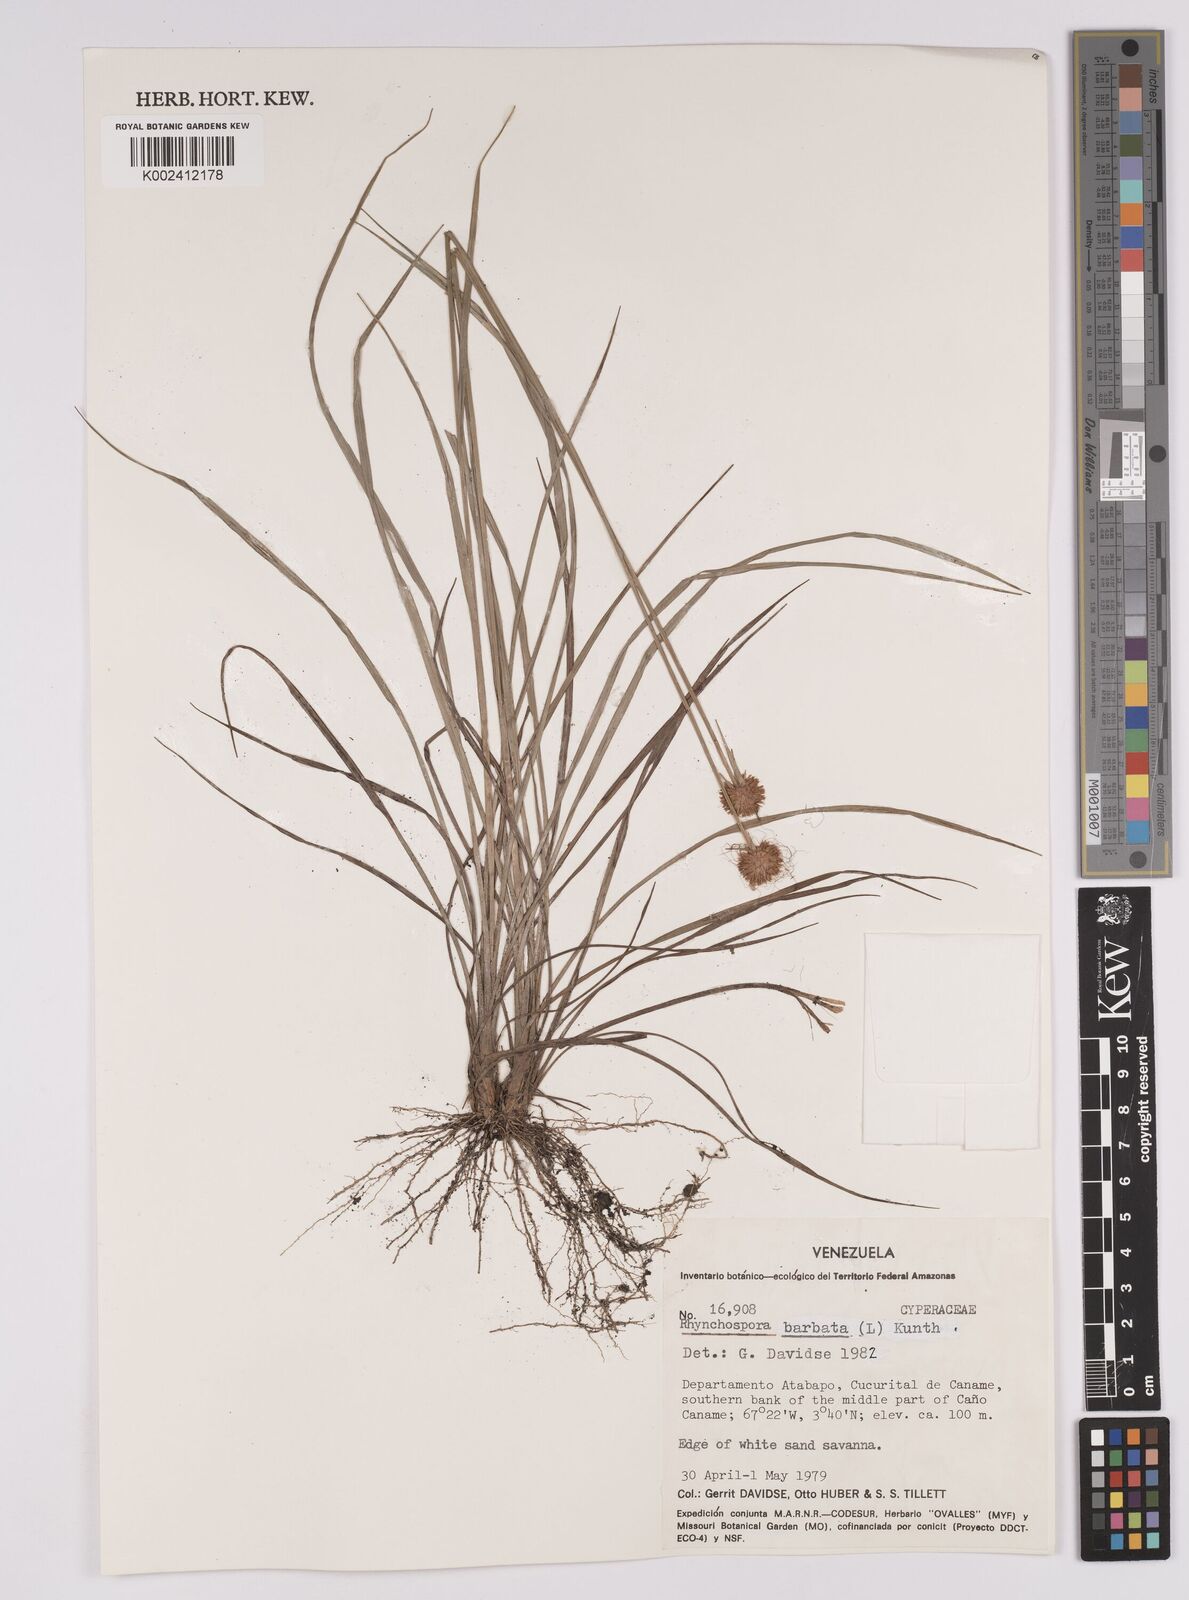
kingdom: Plantae
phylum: Tracheophyta
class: Liliopsida
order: Poales
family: Cyperaceae
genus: Rhynchospora
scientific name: Rhynchospora barbata
